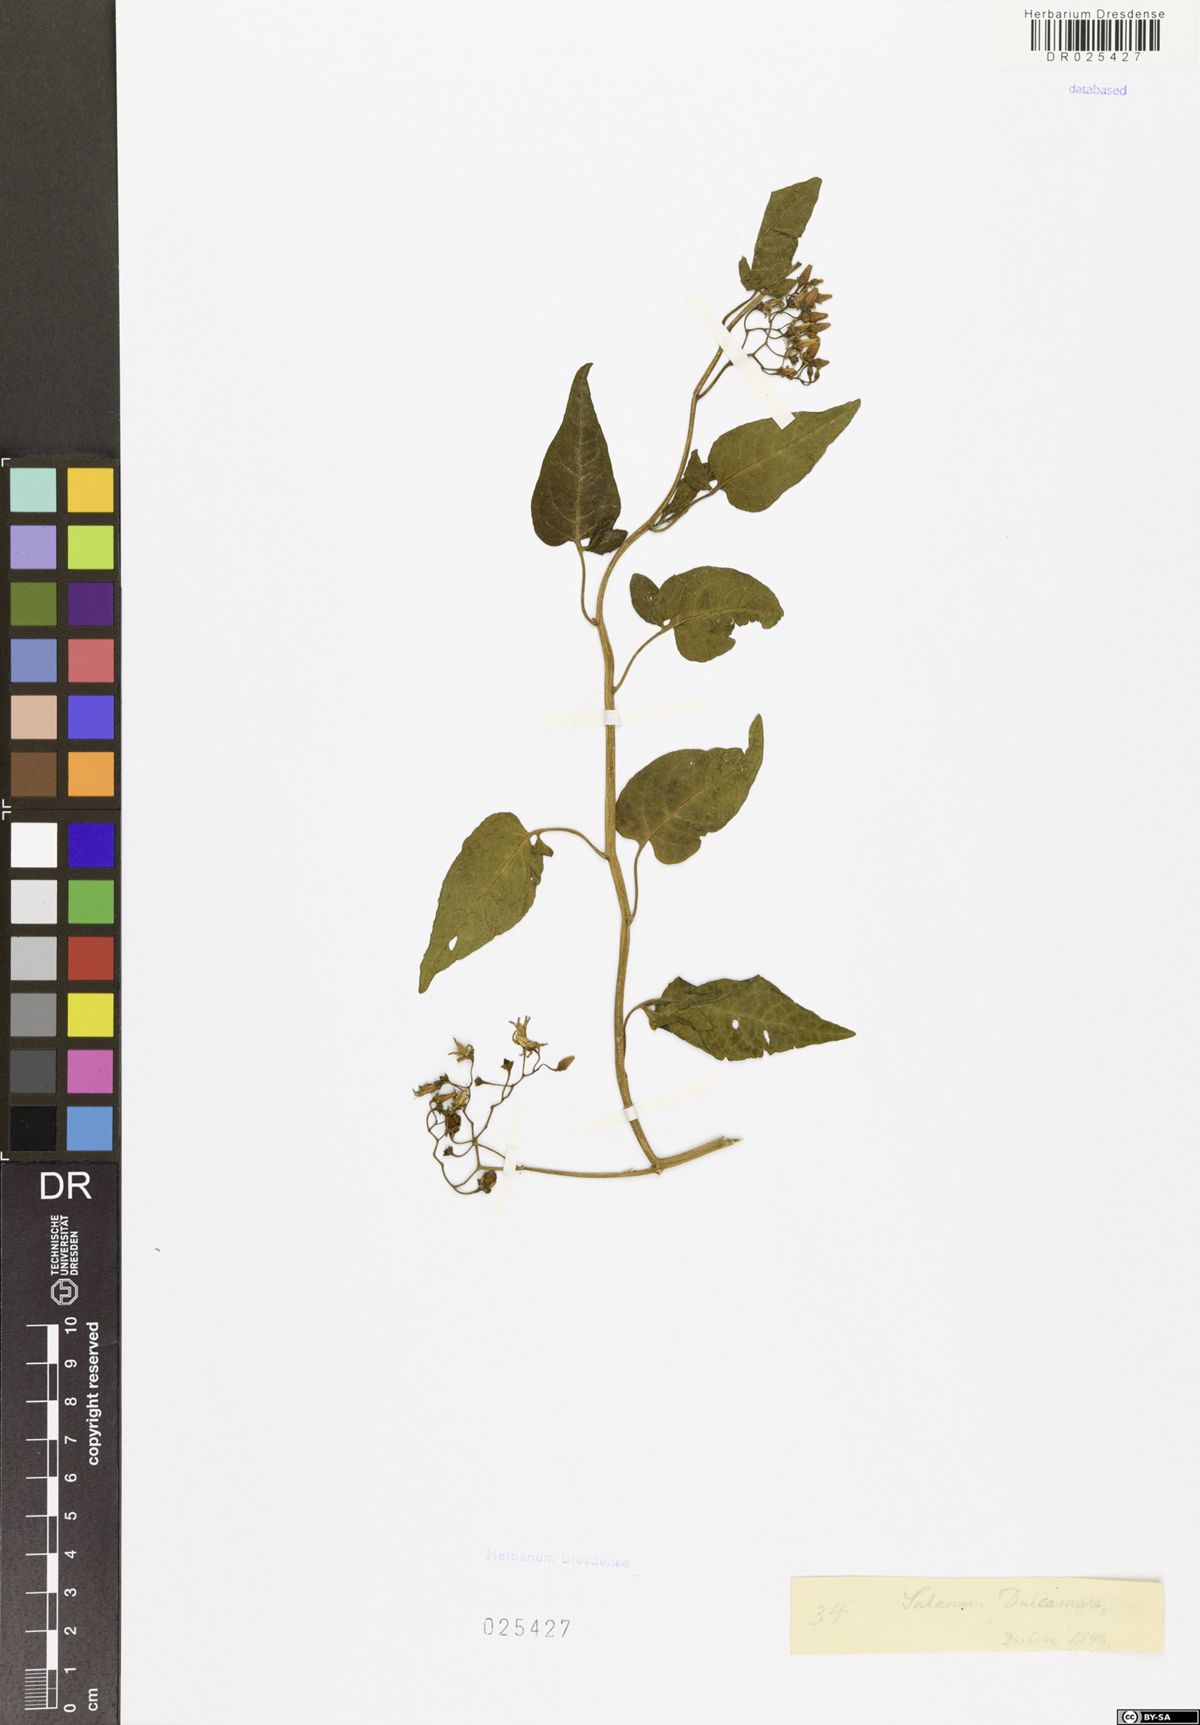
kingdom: Plantae
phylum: Tracheophyta
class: Magnoliopsida
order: Solanales
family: Solanaceae
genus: Solanum
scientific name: Solanum dulcamara
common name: Climbing nightshade
